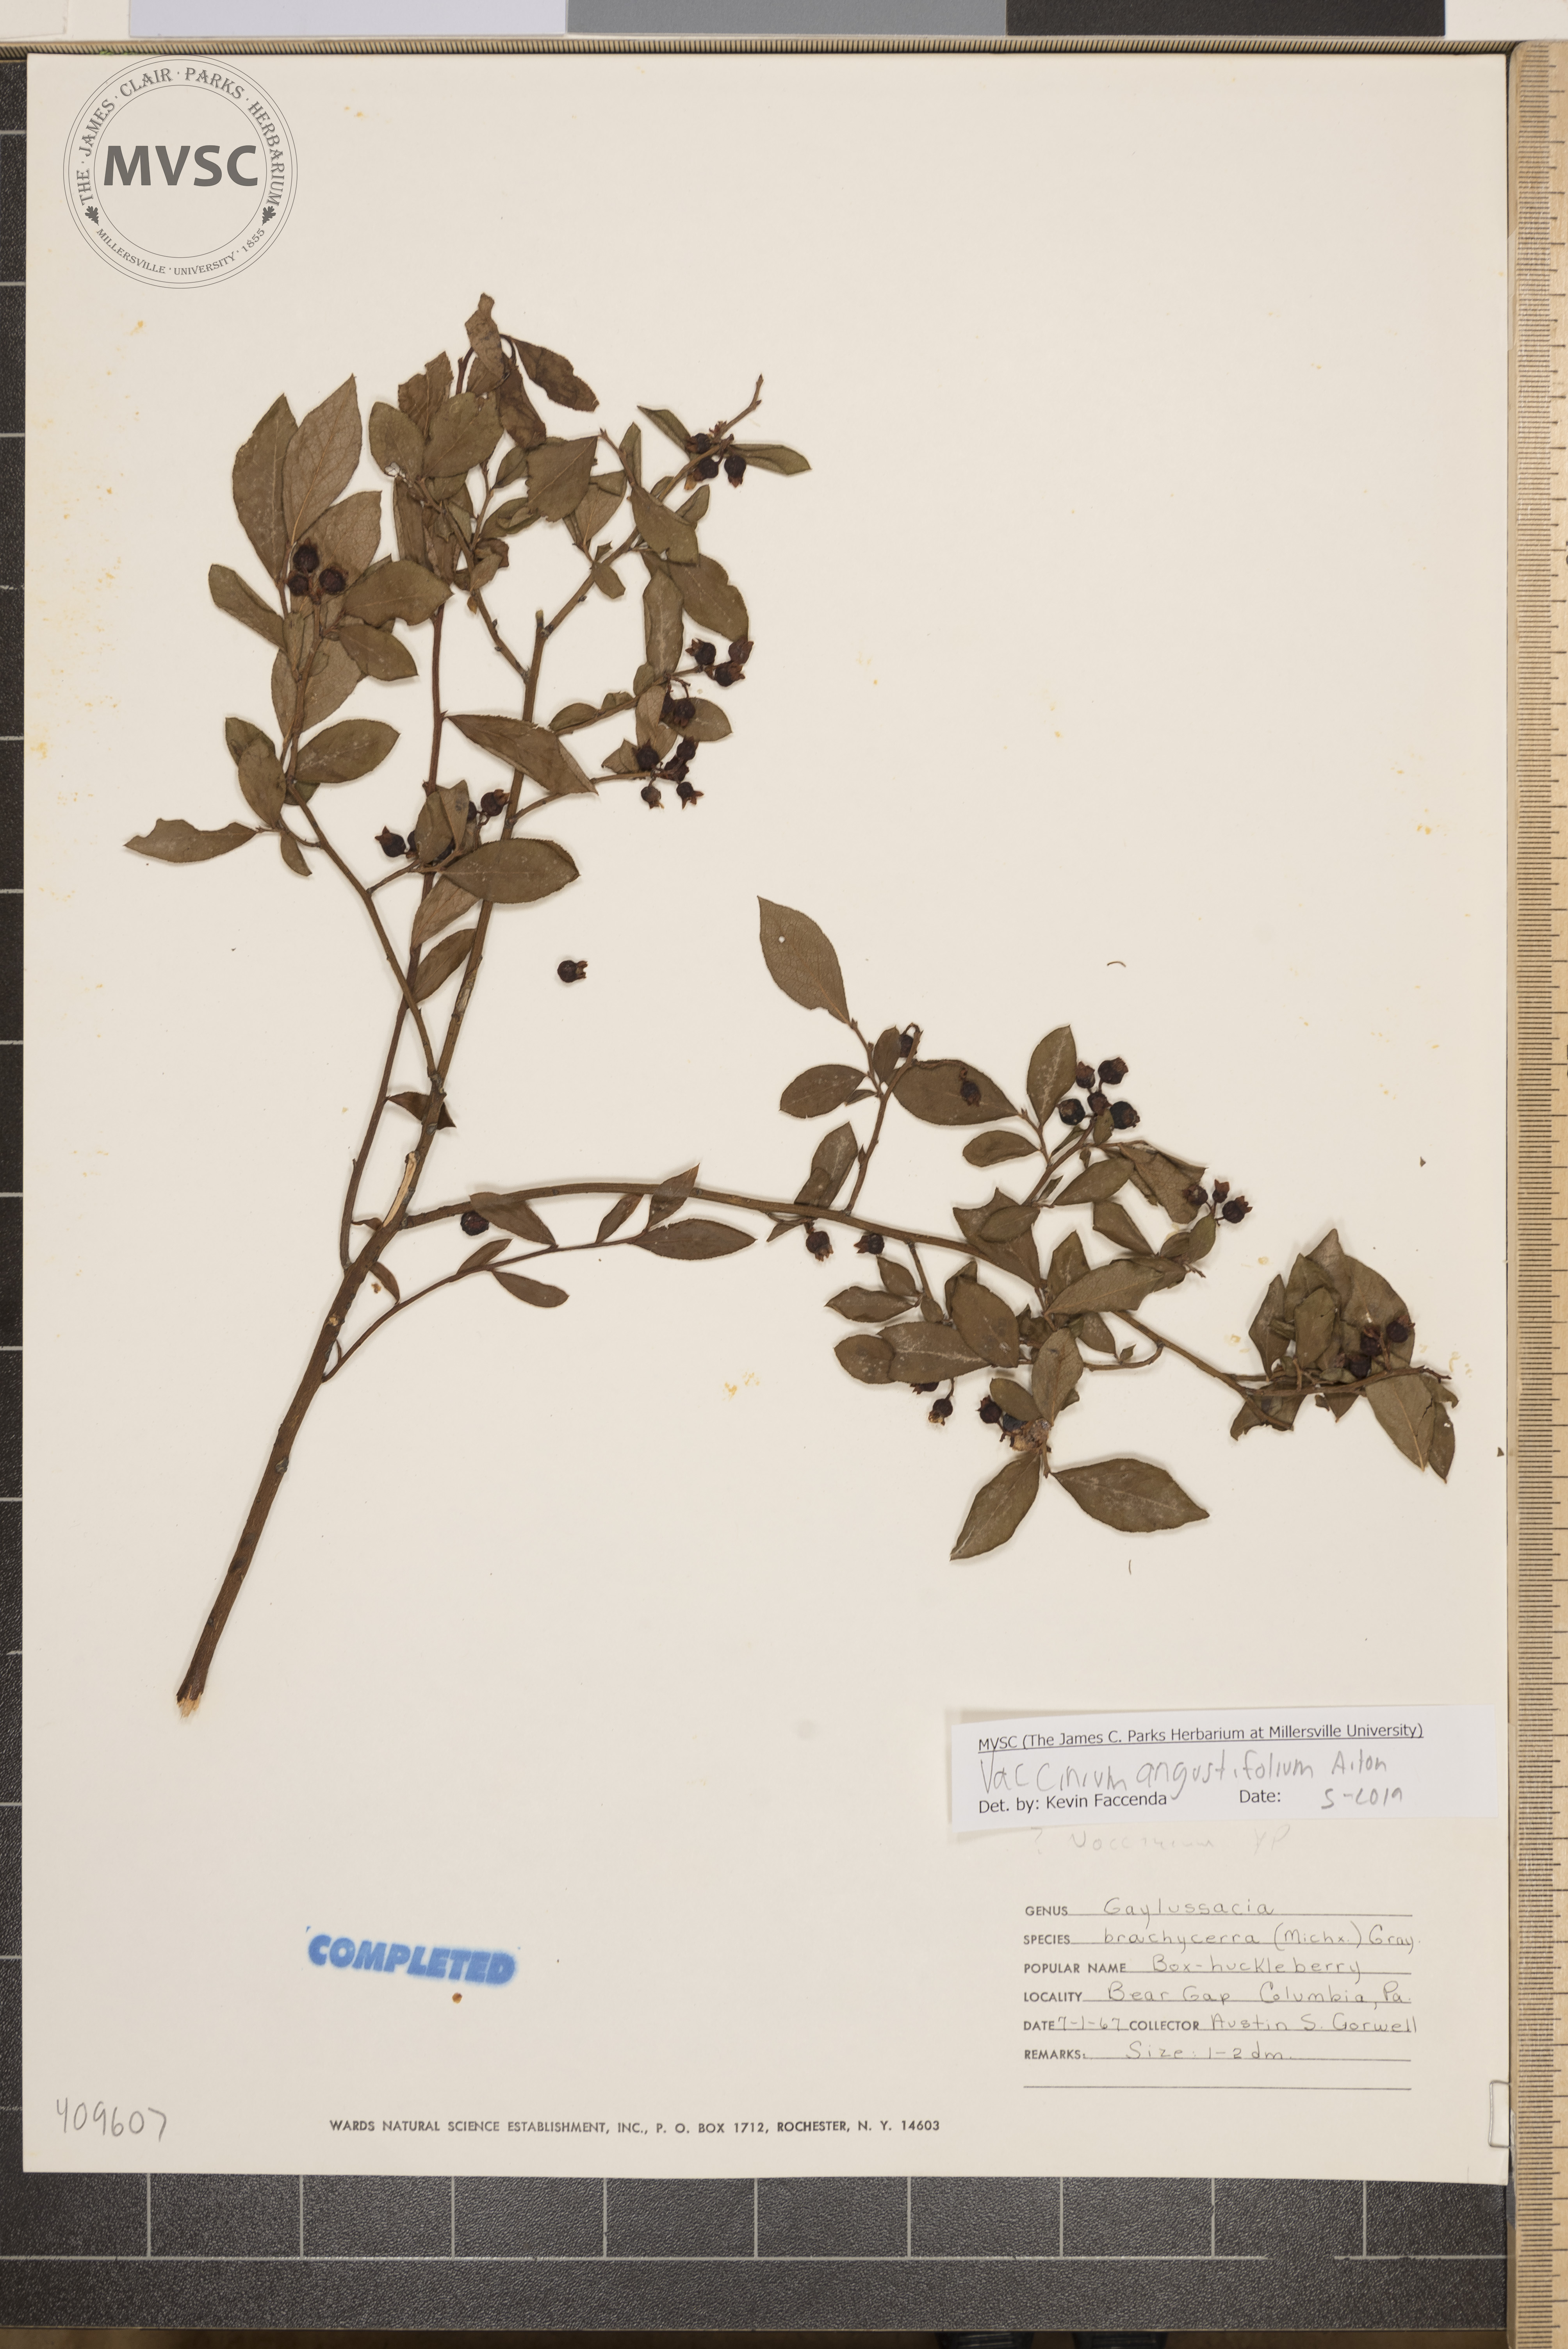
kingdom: Plantae
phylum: Tracheophyta
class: Magnoliopsida
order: Ericales
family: Ericaceae
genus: Vaccinium
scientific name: Vaccinium angustifolium
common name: Early lowbush blueberry
